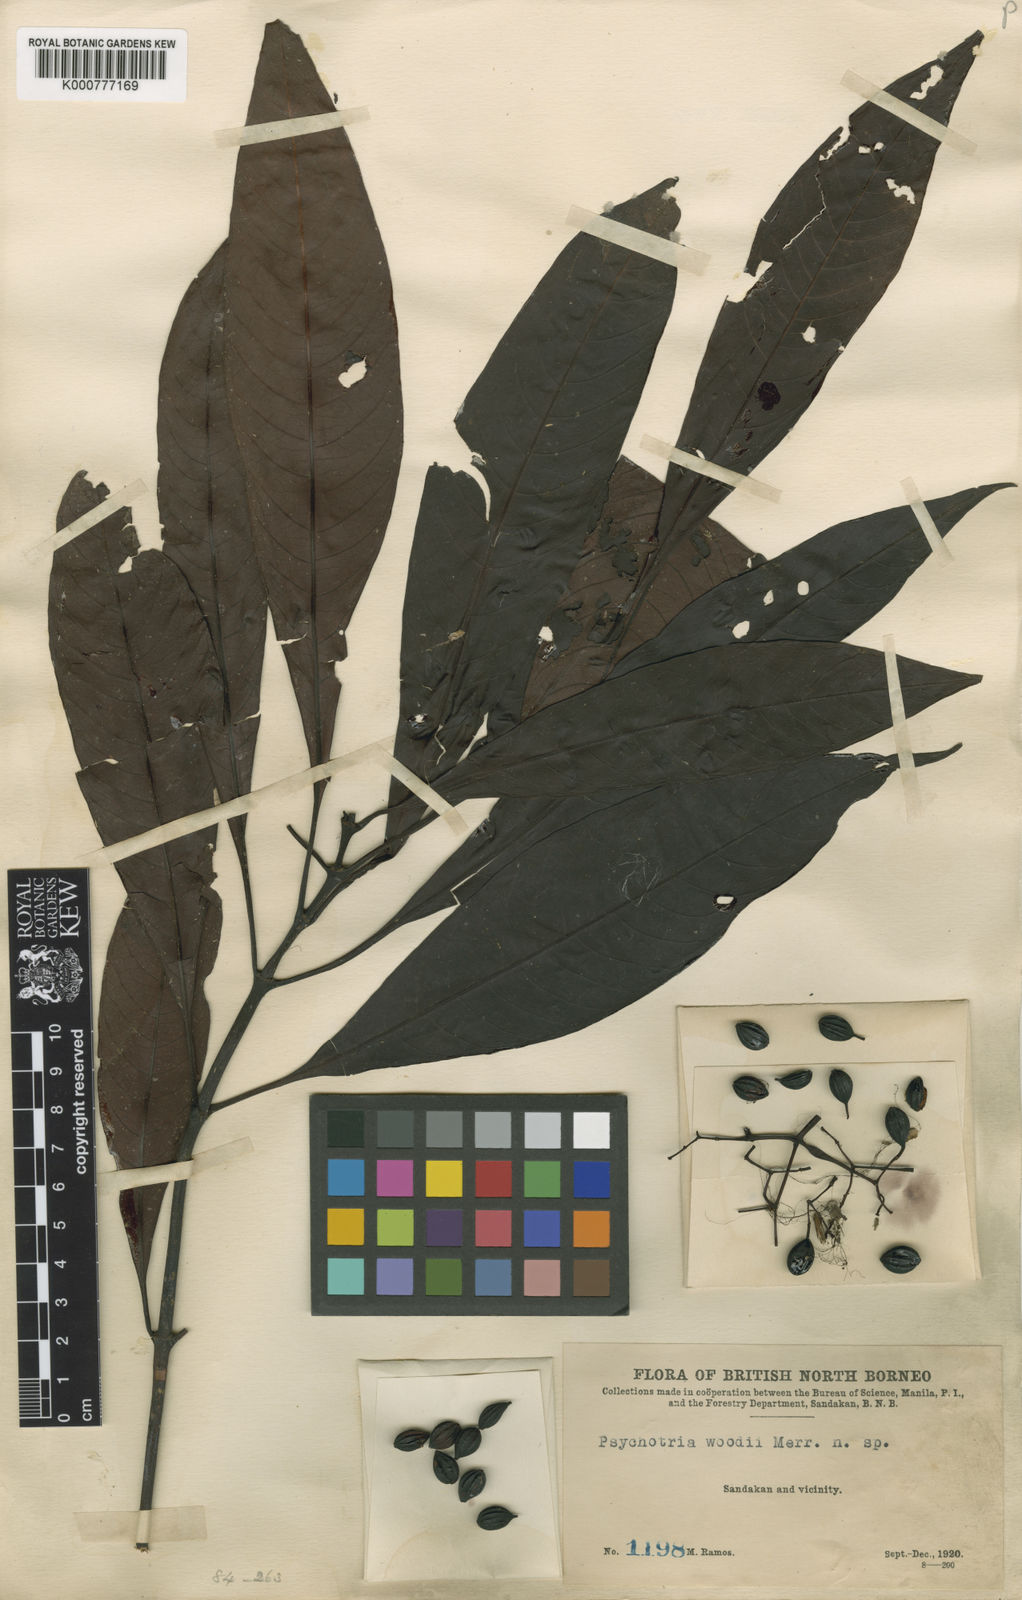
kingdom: Plantae
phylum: Tracheophyta
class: Magnoliopsida
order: Gentianales
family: Rubiaceae
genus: Psychotria
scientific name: Psychotria woodii
